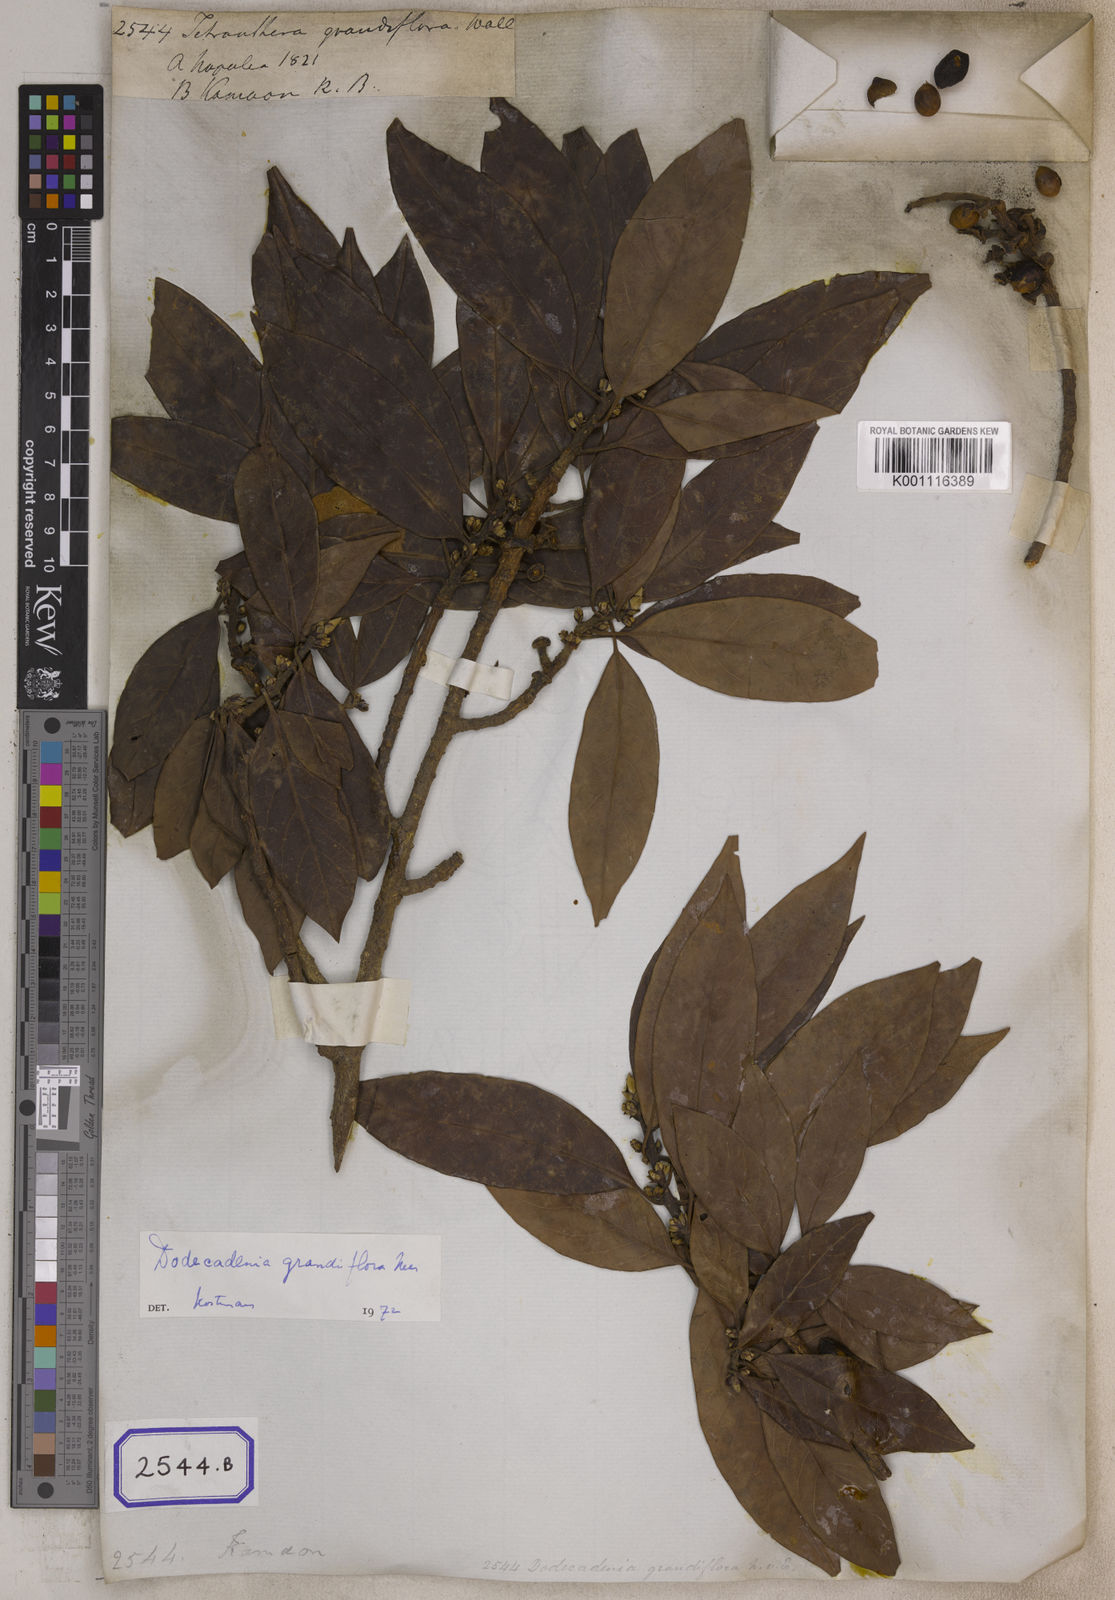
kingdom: Plantae
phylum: Tracheophyta
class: Magnoliopsida
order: Laurales
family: Lauraceae
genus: Dodecadenia
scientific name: Dodecadenia grandiflora
